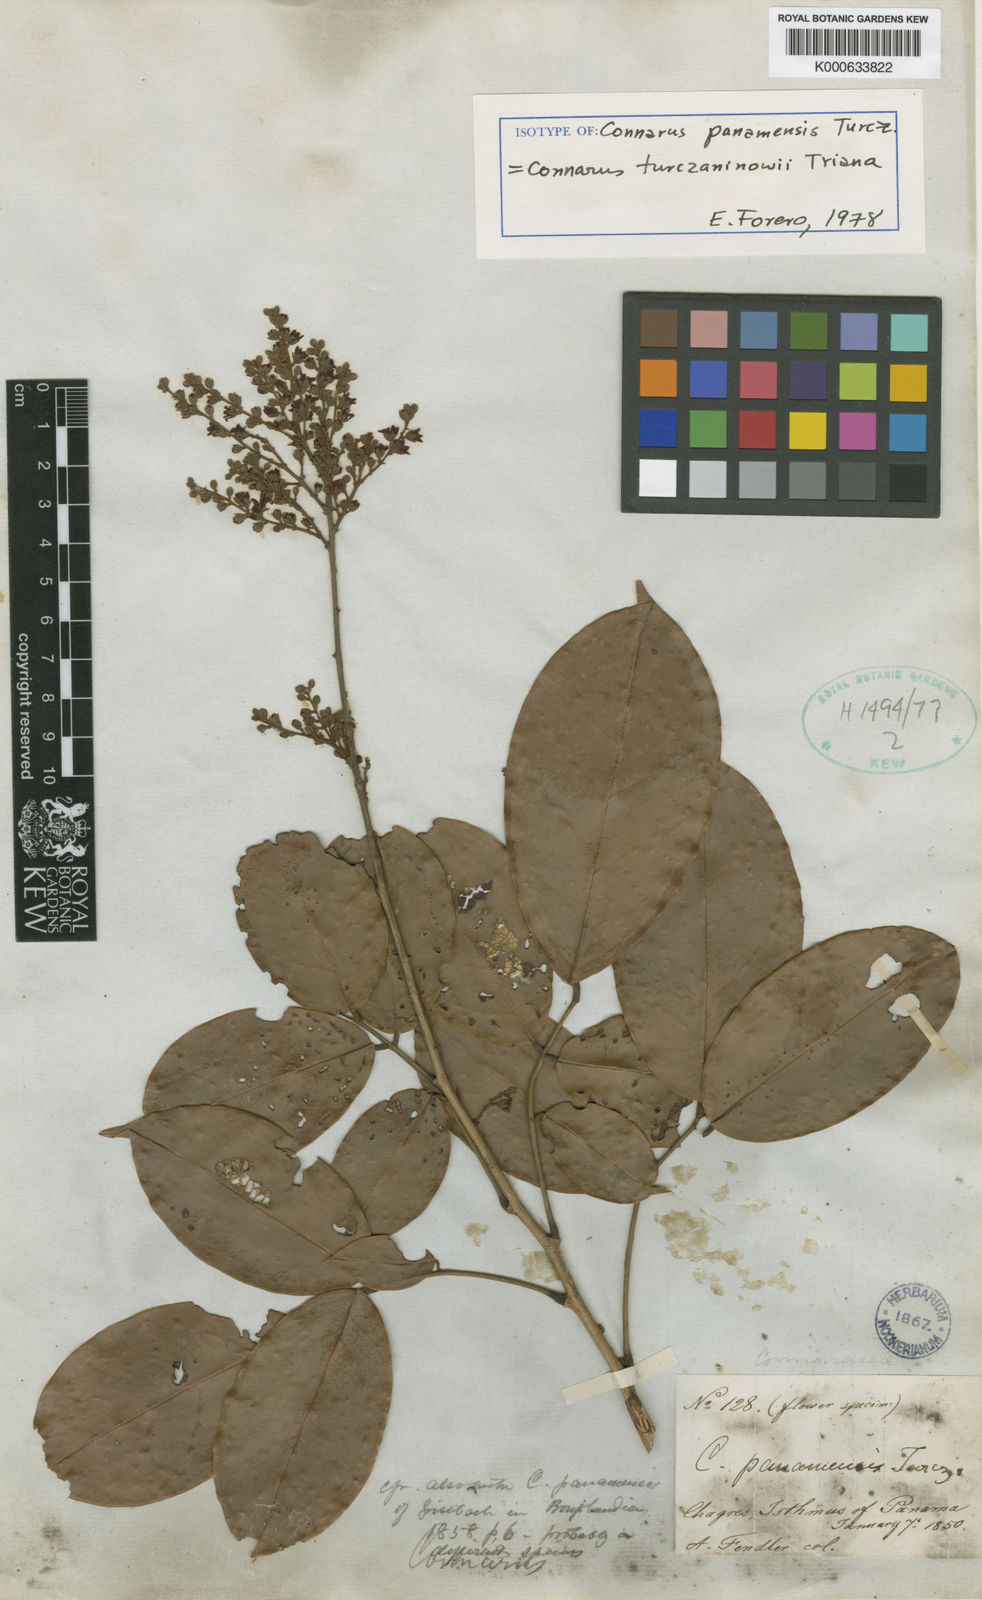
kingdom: Plantae
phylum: Tracheophyta
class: Magnoliopsida
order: Oxalidales
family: Connaraceae
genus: Connarus
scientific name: Connarus turczaninowii
